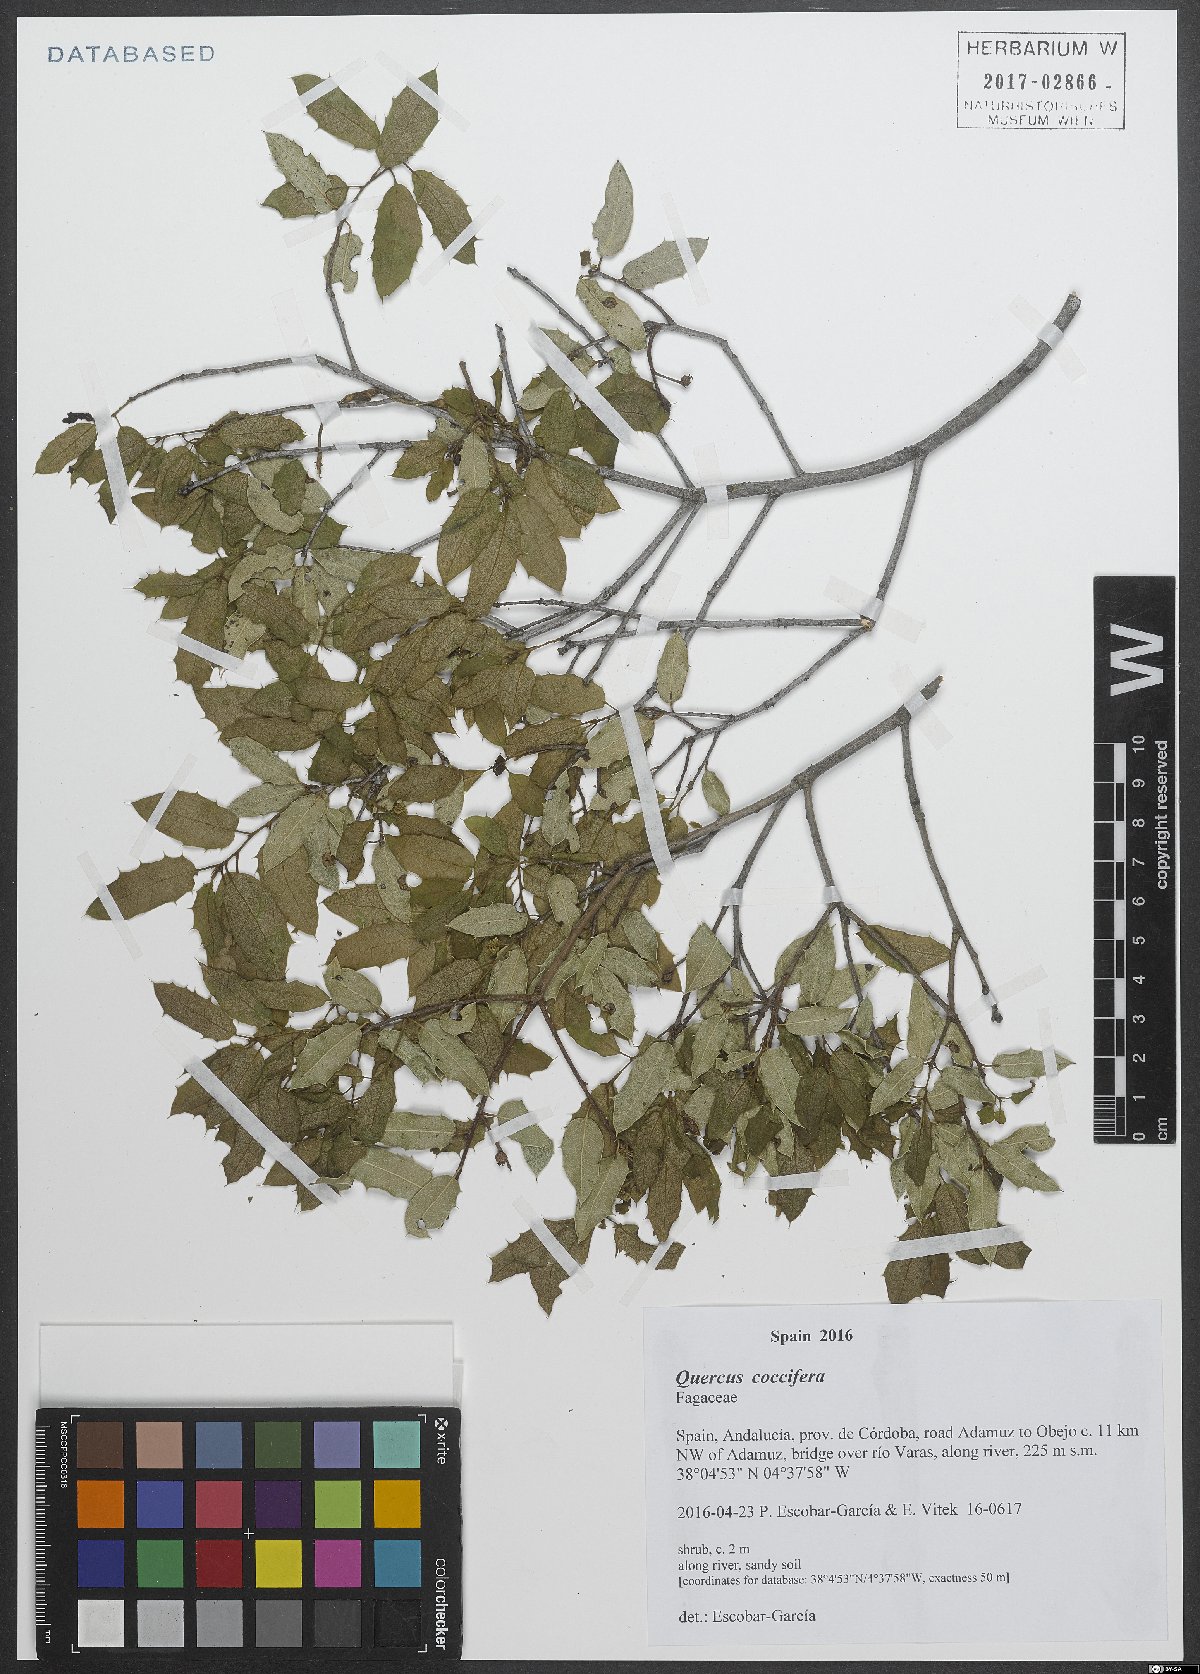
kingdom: Plantae
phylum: Tracheophyta
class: Magnoliopsida
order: Fagales
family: Fagaceae
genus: Quercus
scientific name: Quercus coccifera
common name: Kermes oak
